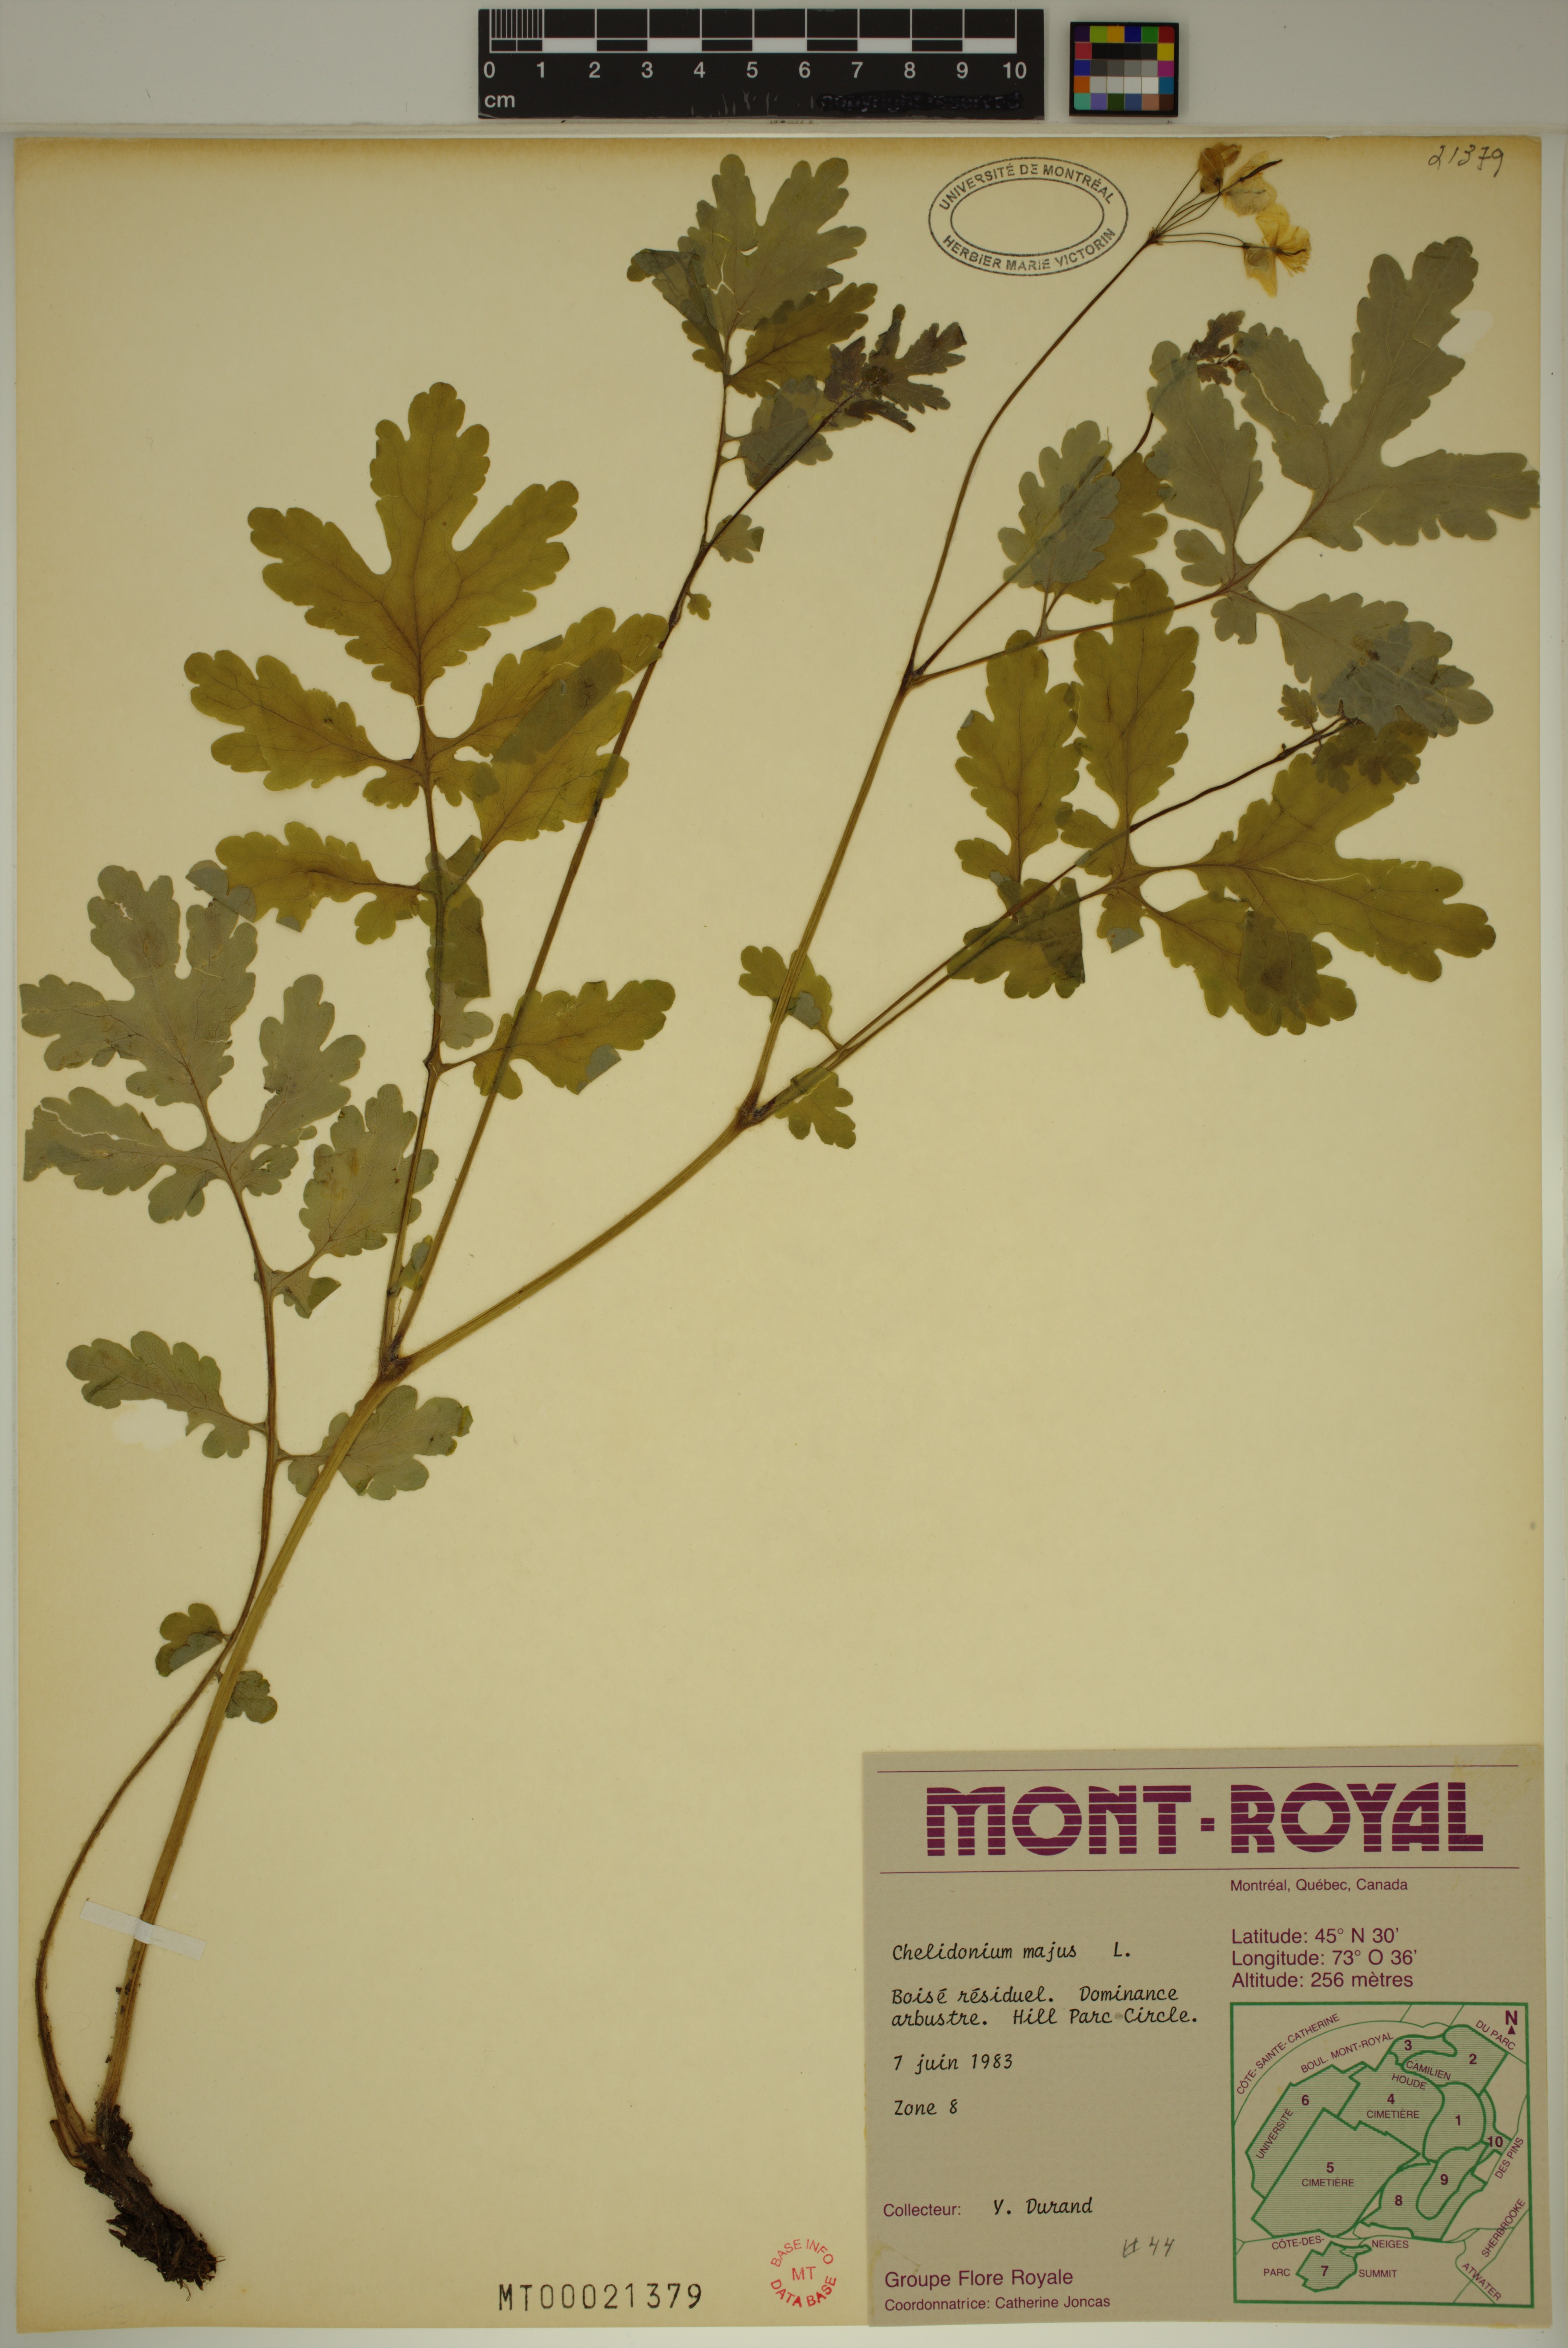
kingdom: Plantae
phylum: Tracheophyta
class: Magnoliopsida
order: Ranunculales
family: Papaveraceae
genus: Chelidonium
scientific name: Chelidonium majus
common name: Greater celandine
